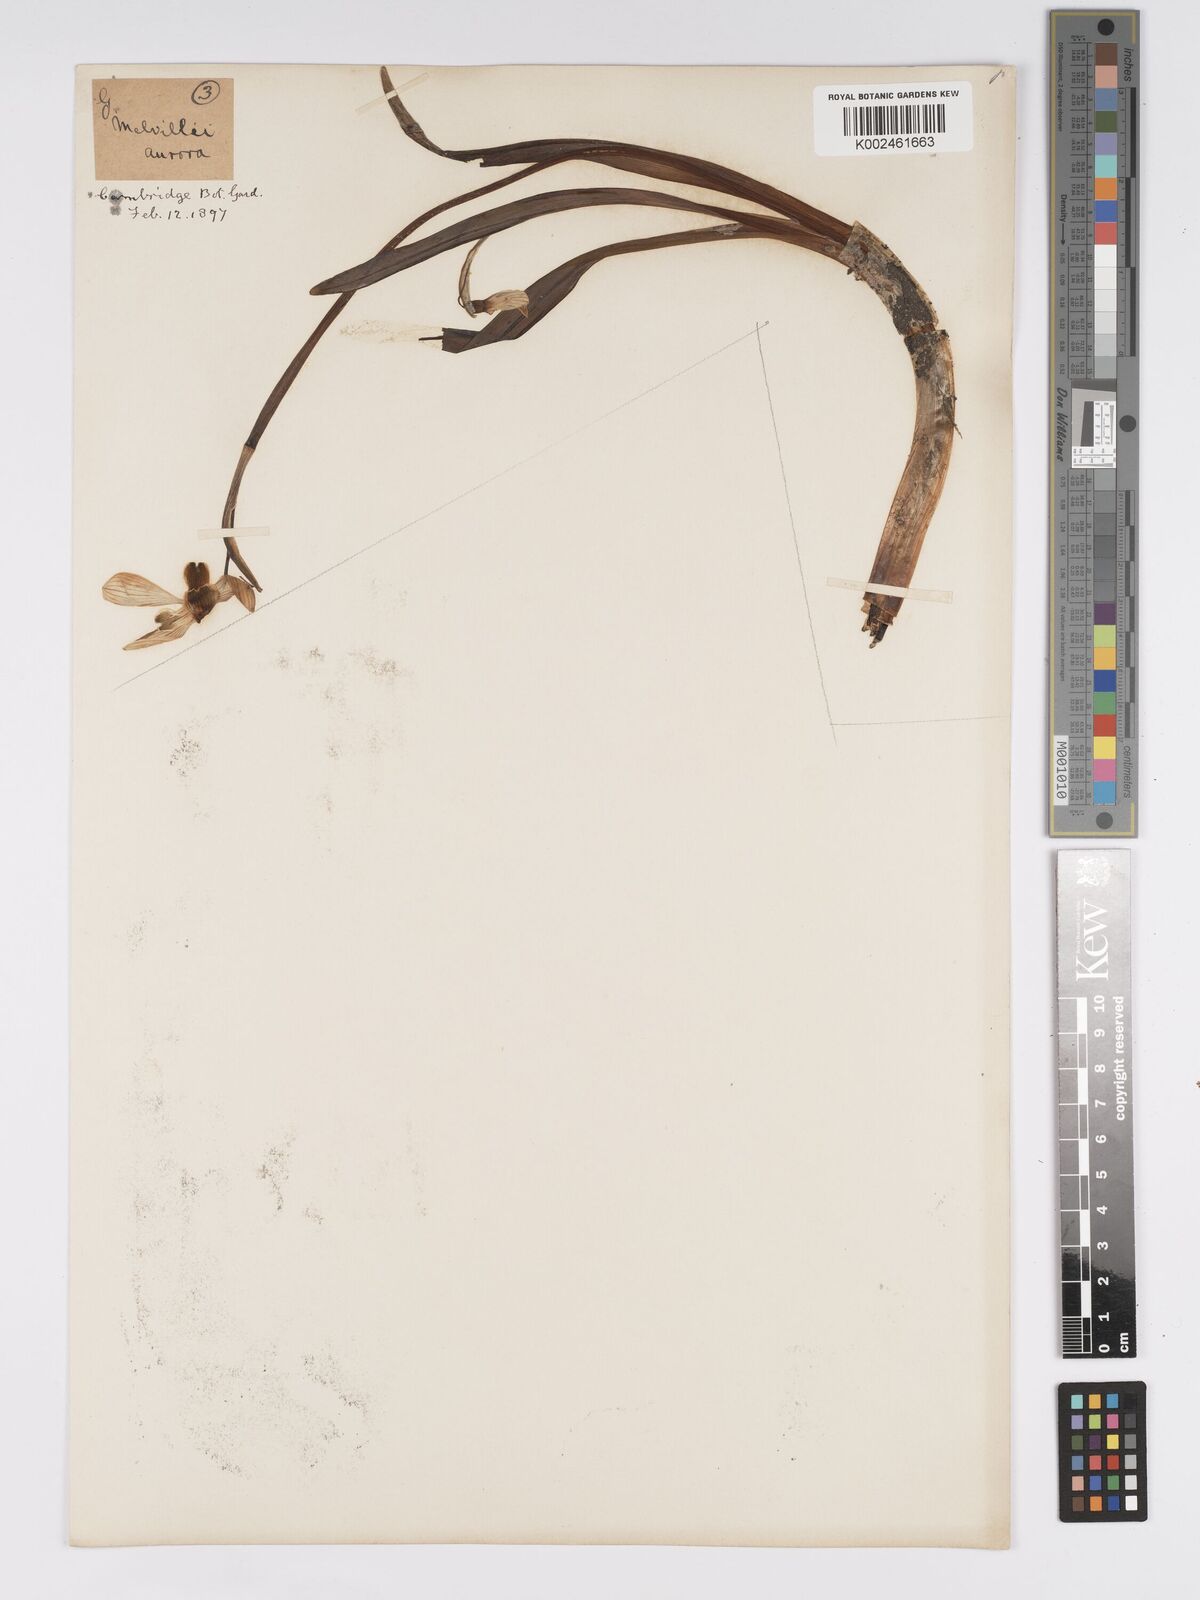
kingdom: Plantae
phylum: Tracheophyta
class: Liliopsida
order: Asparagales
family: Amaryllidaceae
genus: Galanthus
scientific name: Galanthus
